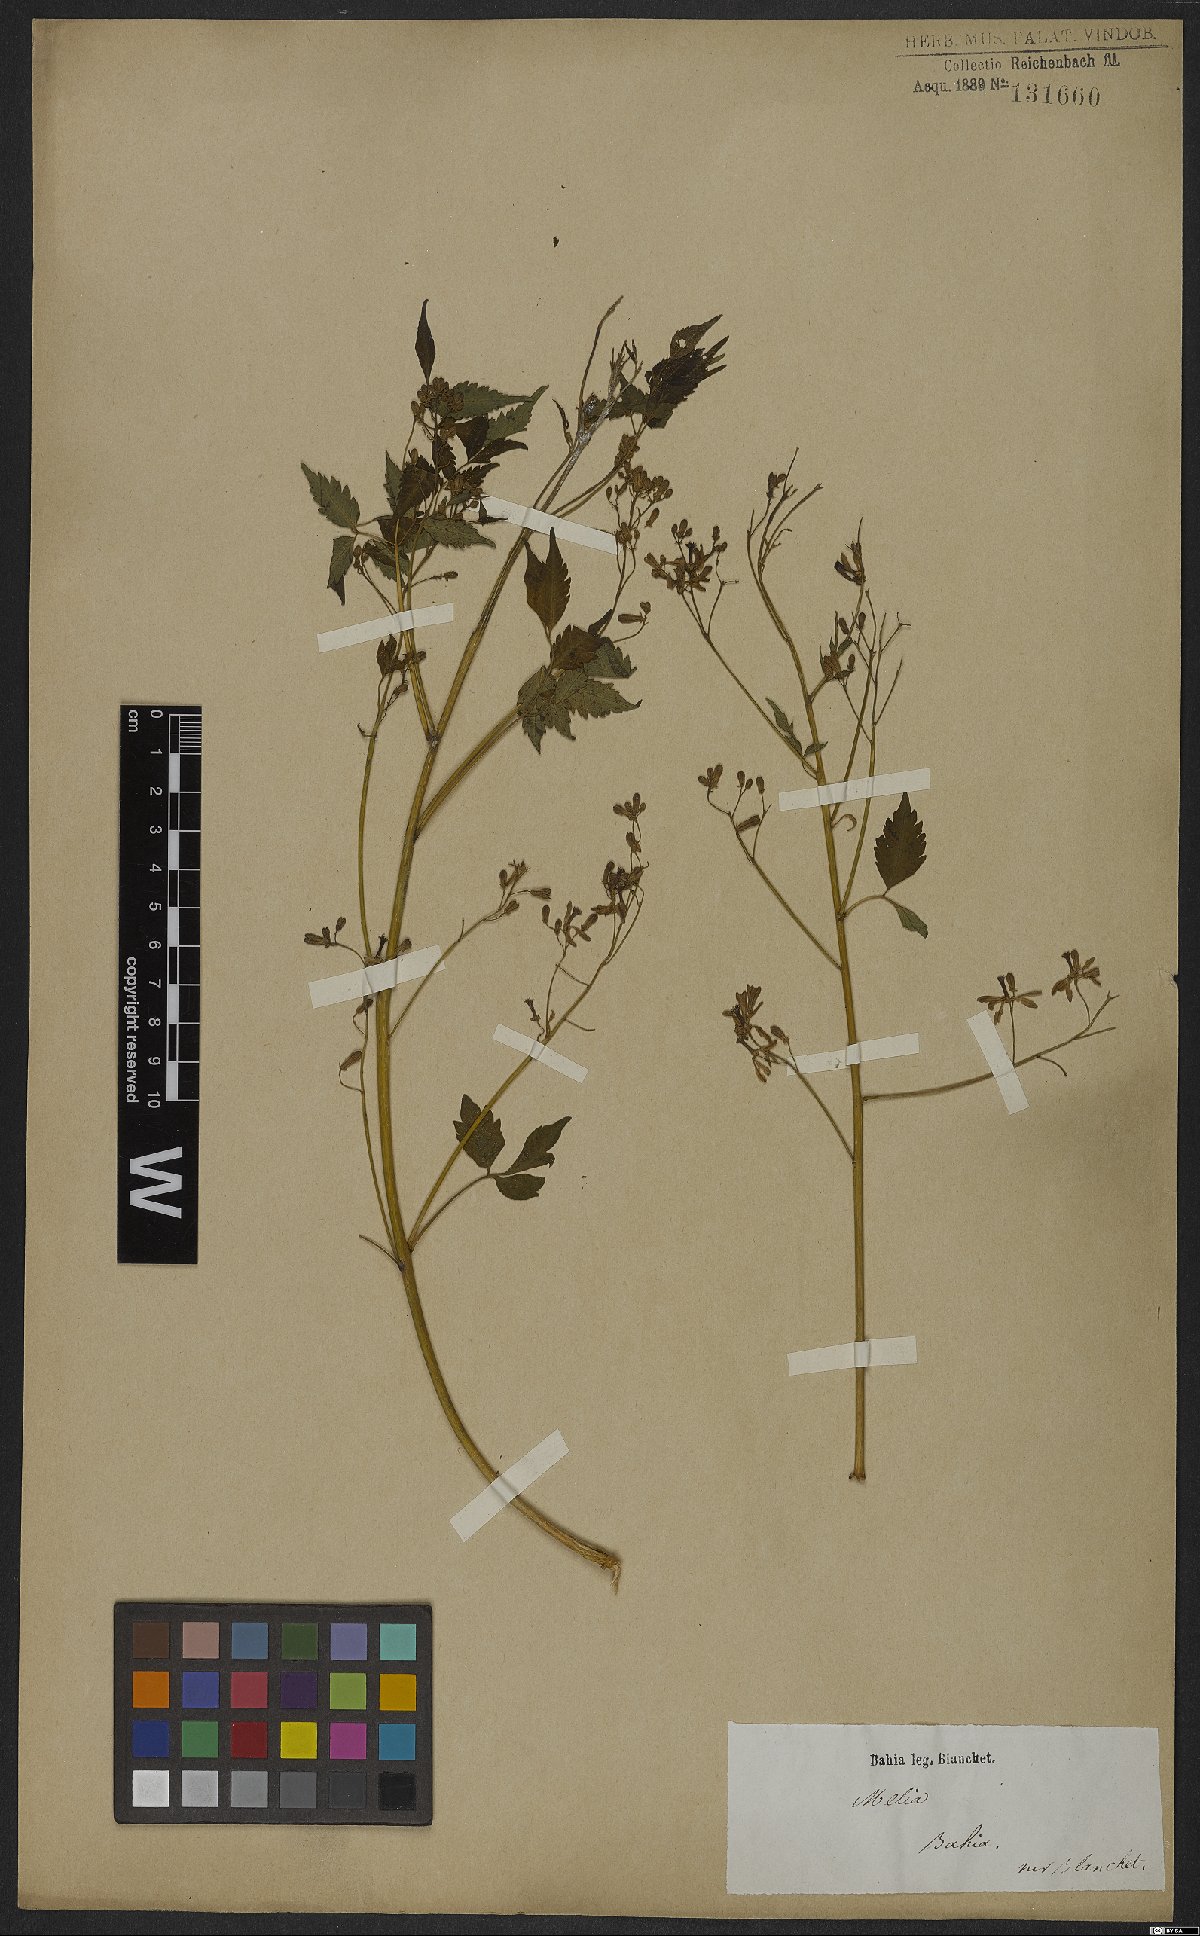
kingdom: Plantae
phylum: Tracheophyta
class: Magnoliopsida
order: Sapindales
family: Meliaceae
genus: Melia
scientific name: Melia
